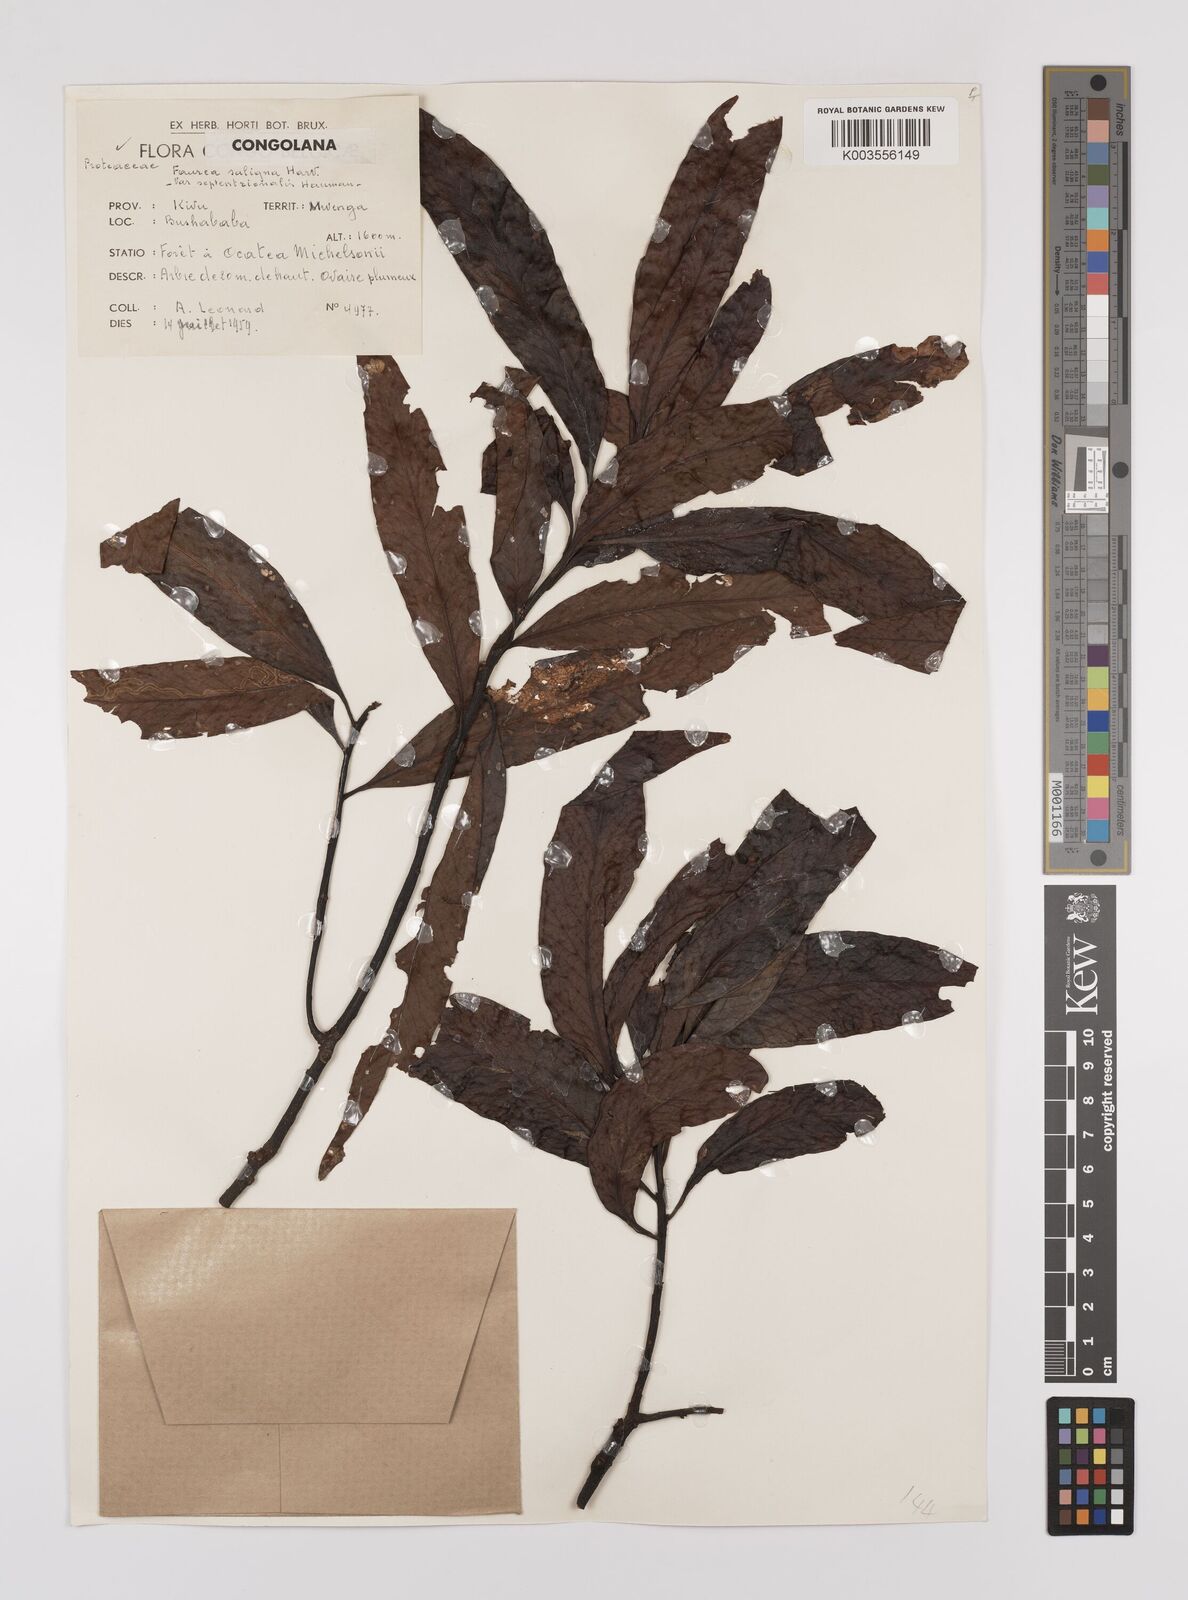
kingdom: Plantae
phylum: Tracheophyta
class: Magnoliopsida
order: Proteales
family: Proteaceae
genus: Faurea
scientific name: Faurea saligna
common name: African bean
